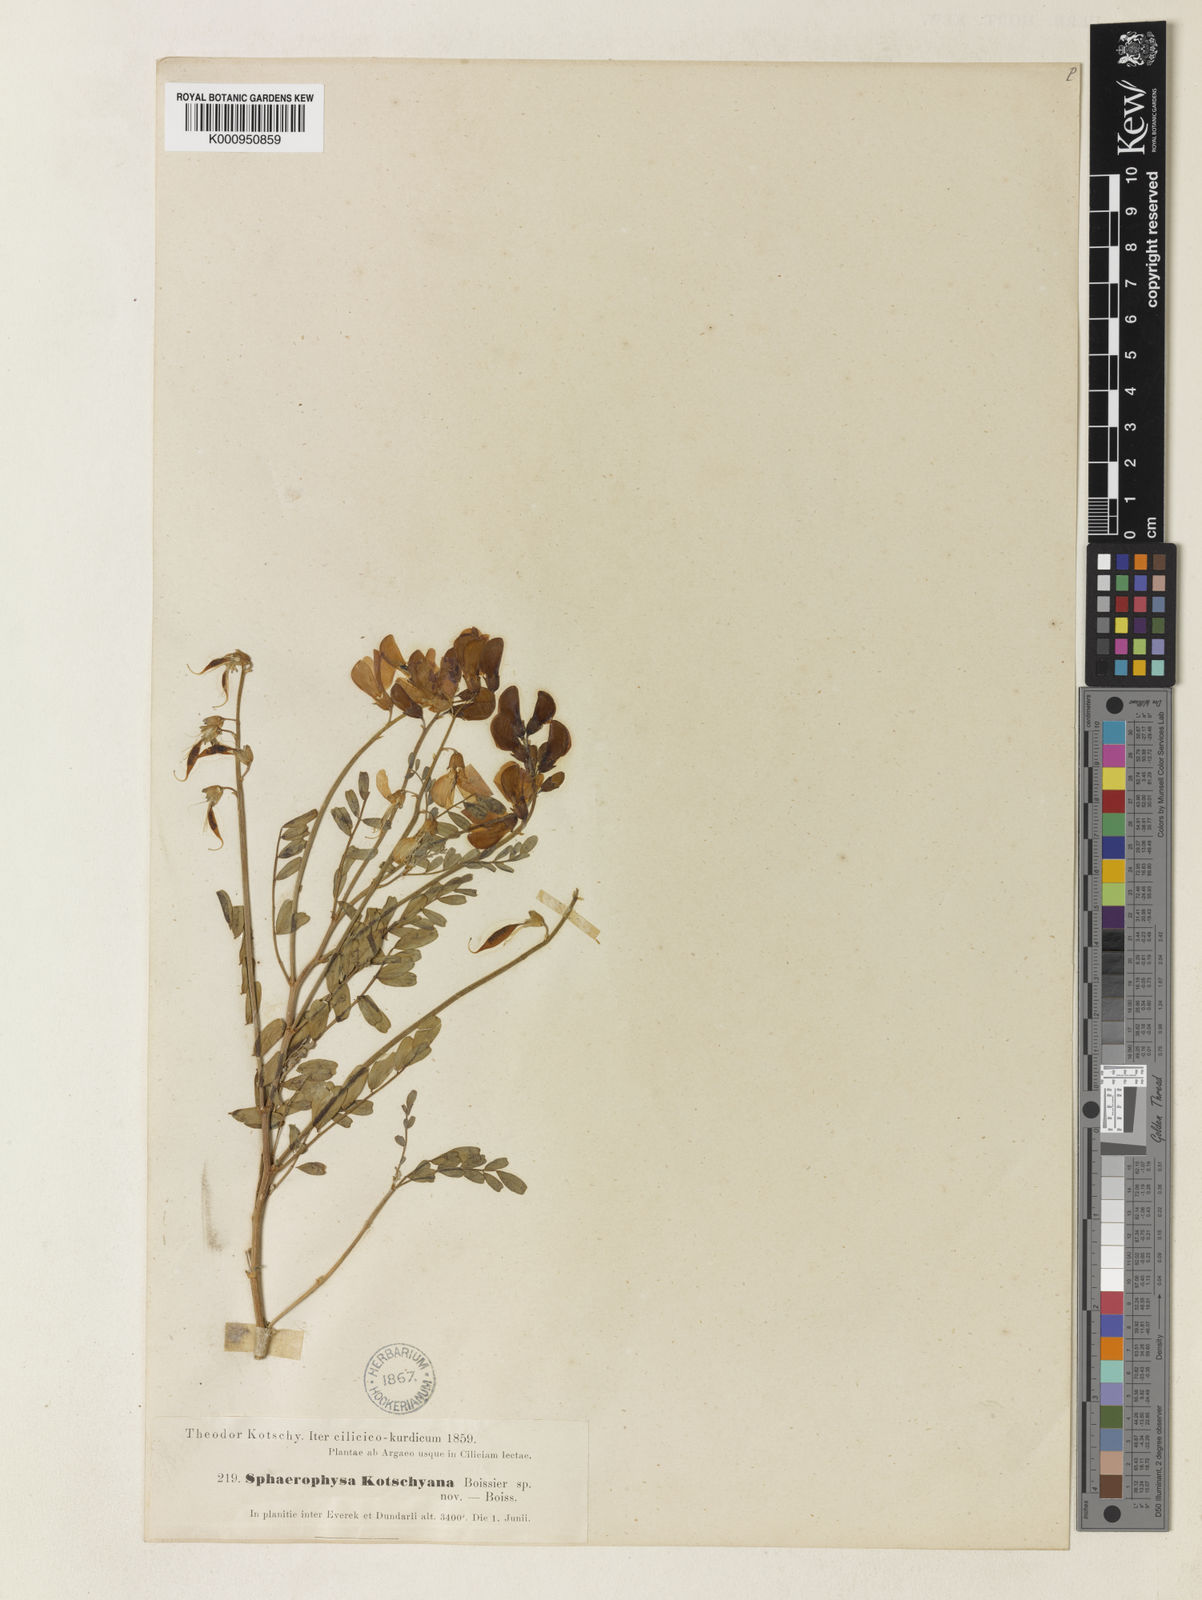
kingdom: Plantae
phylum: Tracheophyta
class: Magnoliopsida
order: Fabales
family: Fabaceae
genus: Sphaerophysa
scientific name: Sphaerophysa kotschyana
